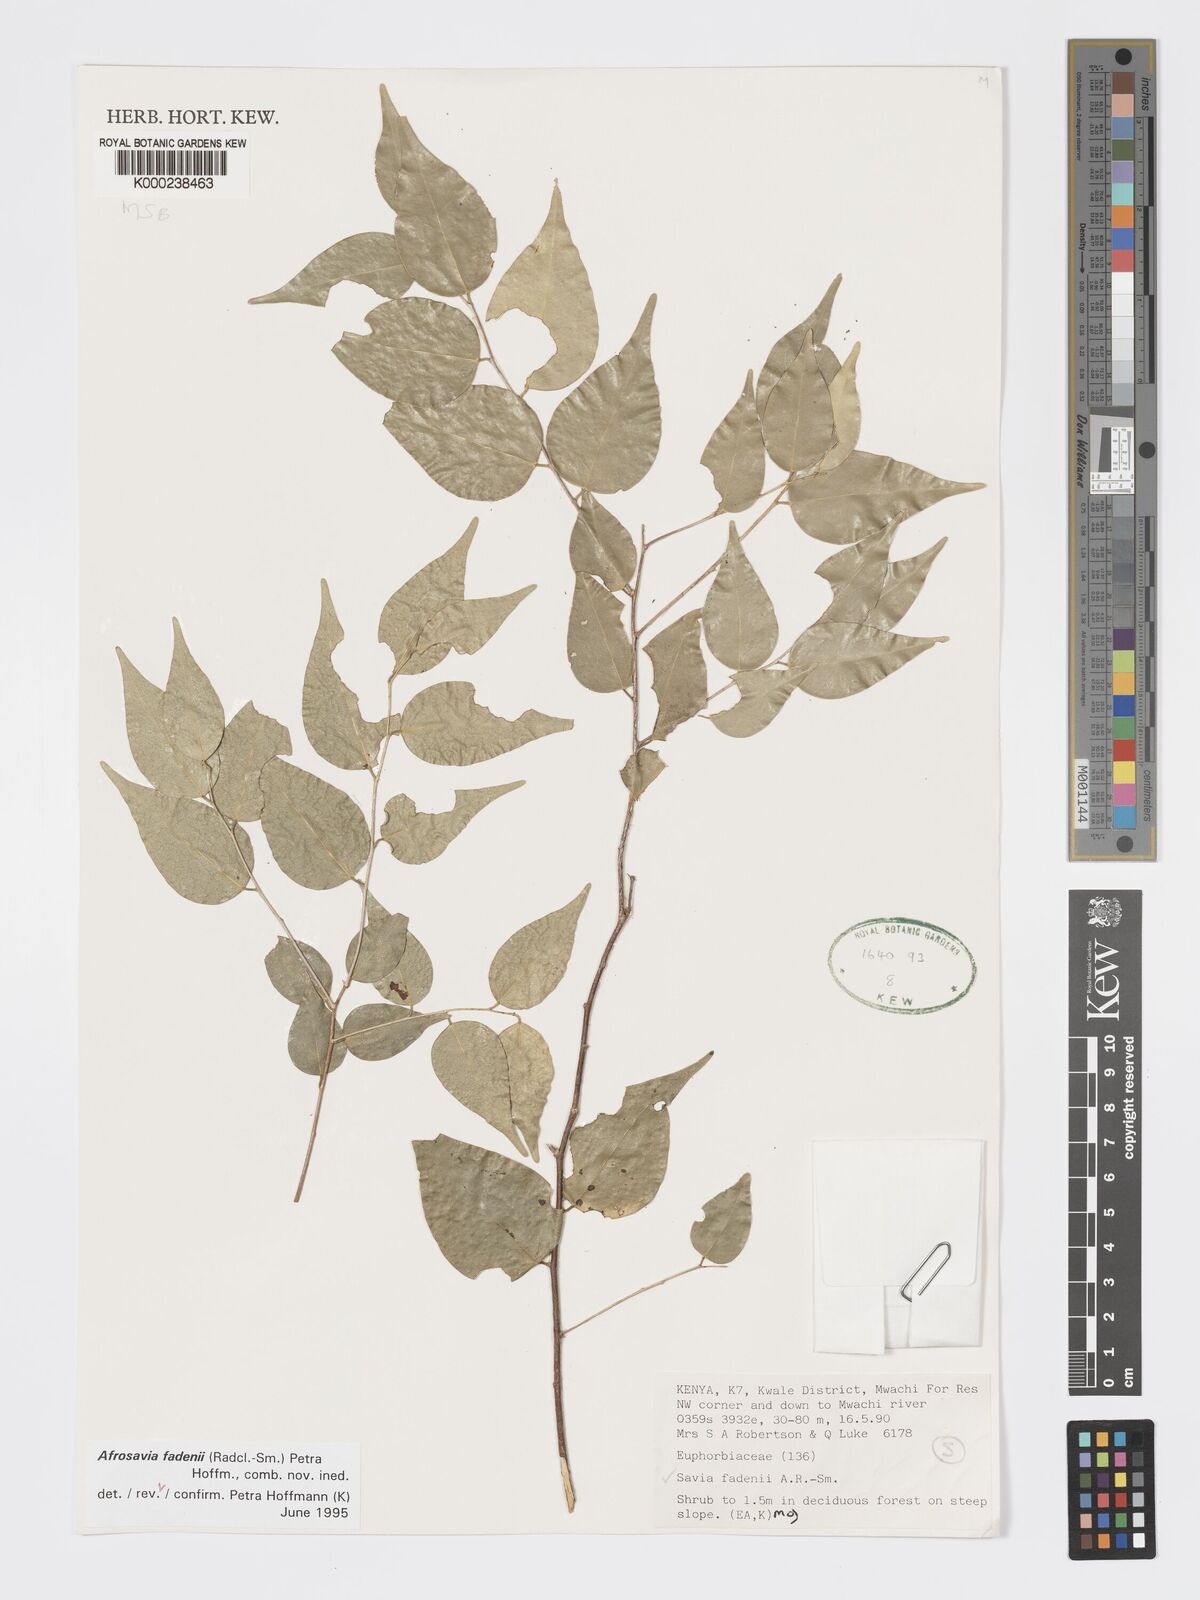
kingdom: Plantae
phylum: Tracheophyta
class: Magnoliopsida
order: Malpighiales
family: Phyllanthaceae
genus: Wielandia
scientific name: Wielandia fadenii
